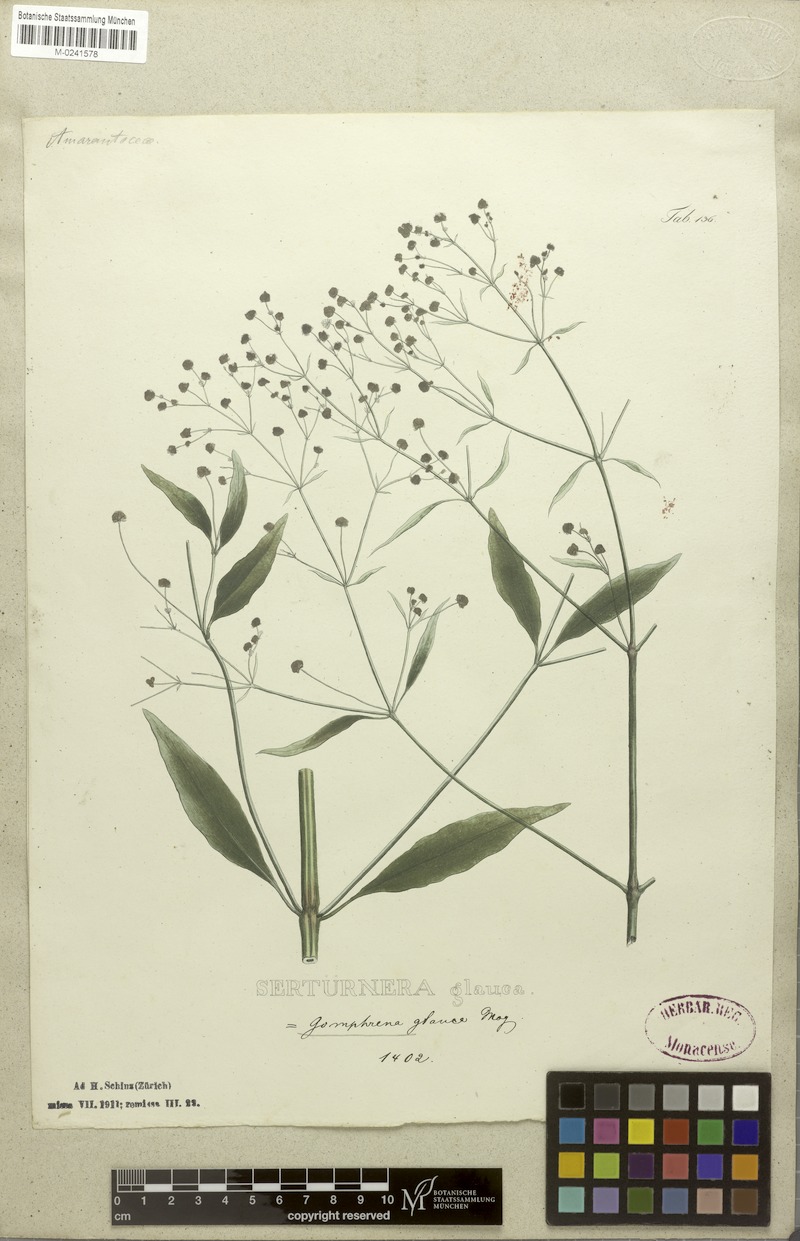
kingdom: Plantae
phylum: Tracheophyta
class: Magnoliopsida
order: Caryophyllales
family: Amaranthaceae
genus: Pfaffia
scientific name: Pfaffia glomerata
